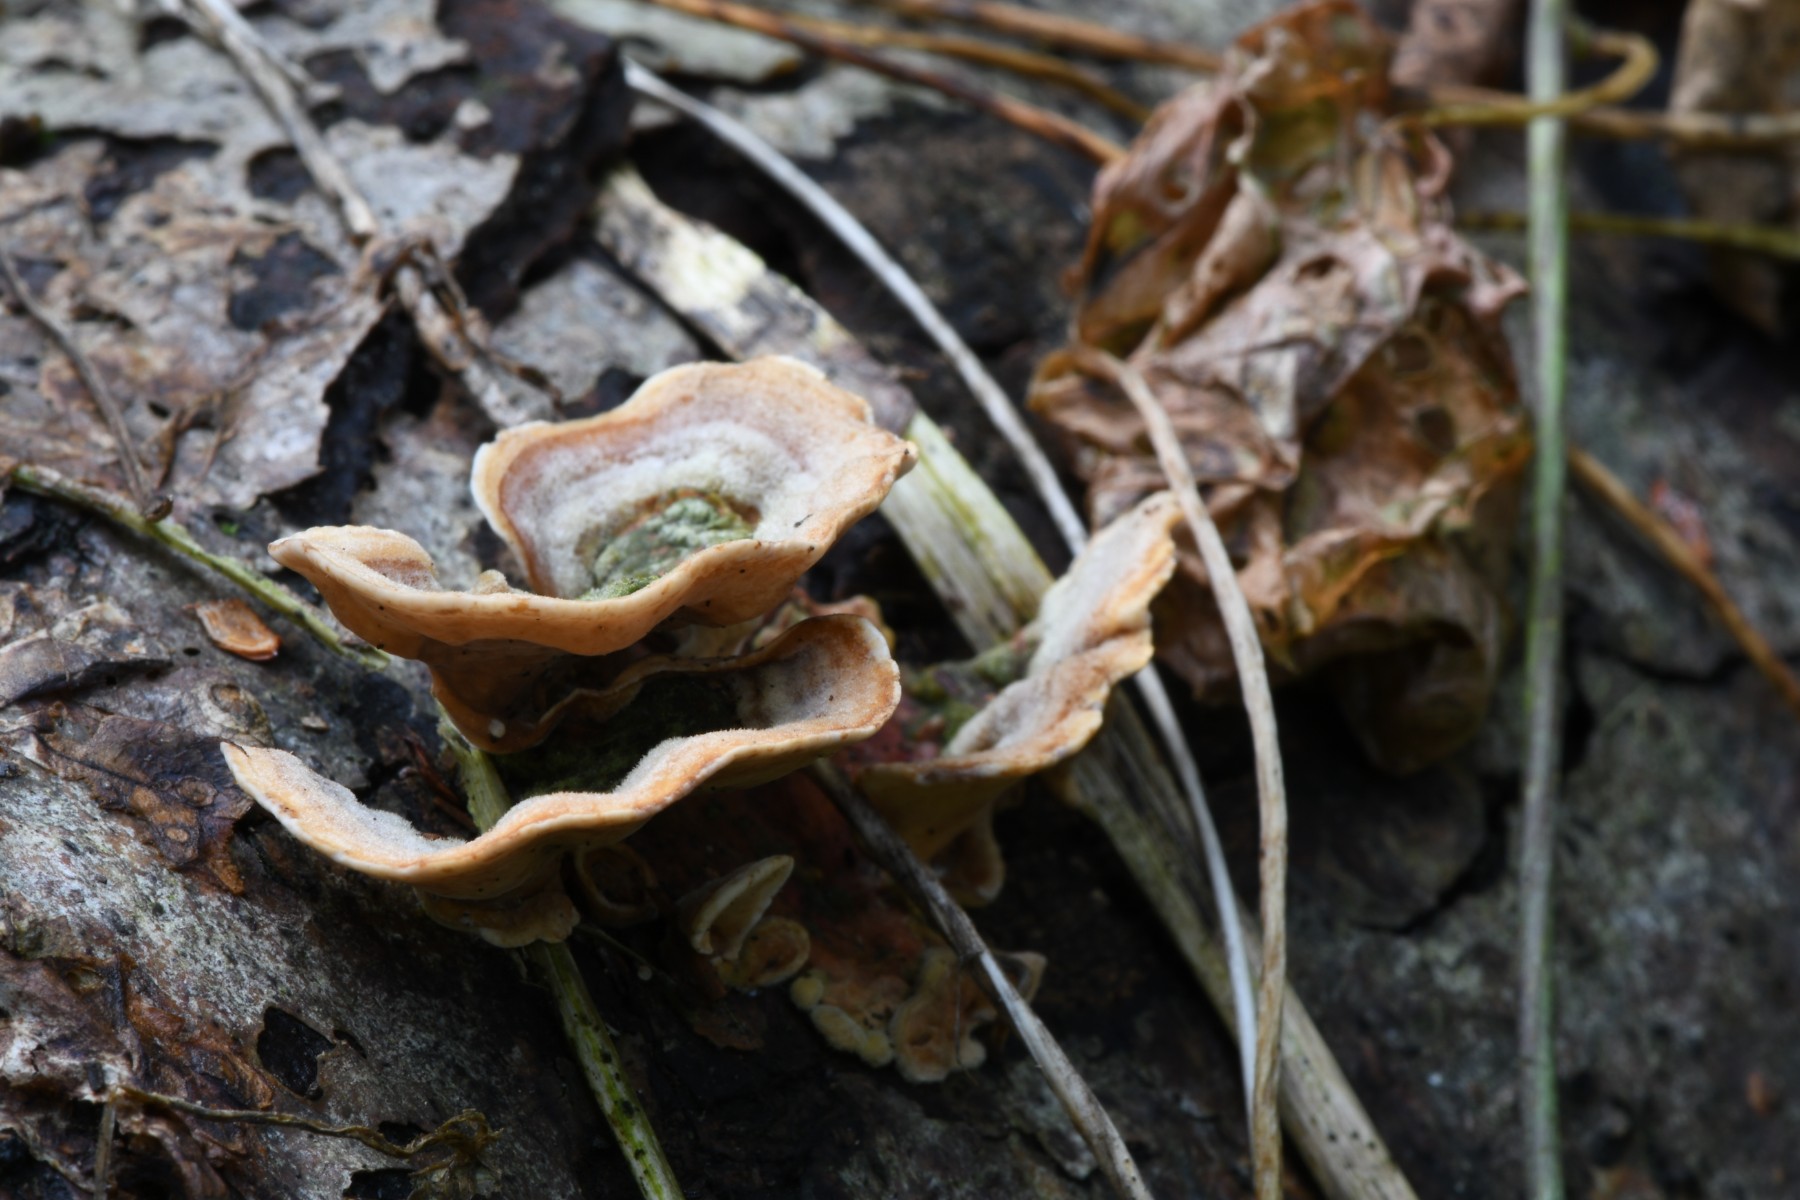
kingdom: Fungi
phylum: Basidiomycota
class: Agaricomycetes
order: Russulales
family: Stereaceae
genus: Stereum
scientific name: Stereum subtomentosum
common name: smuk lædersvamp
